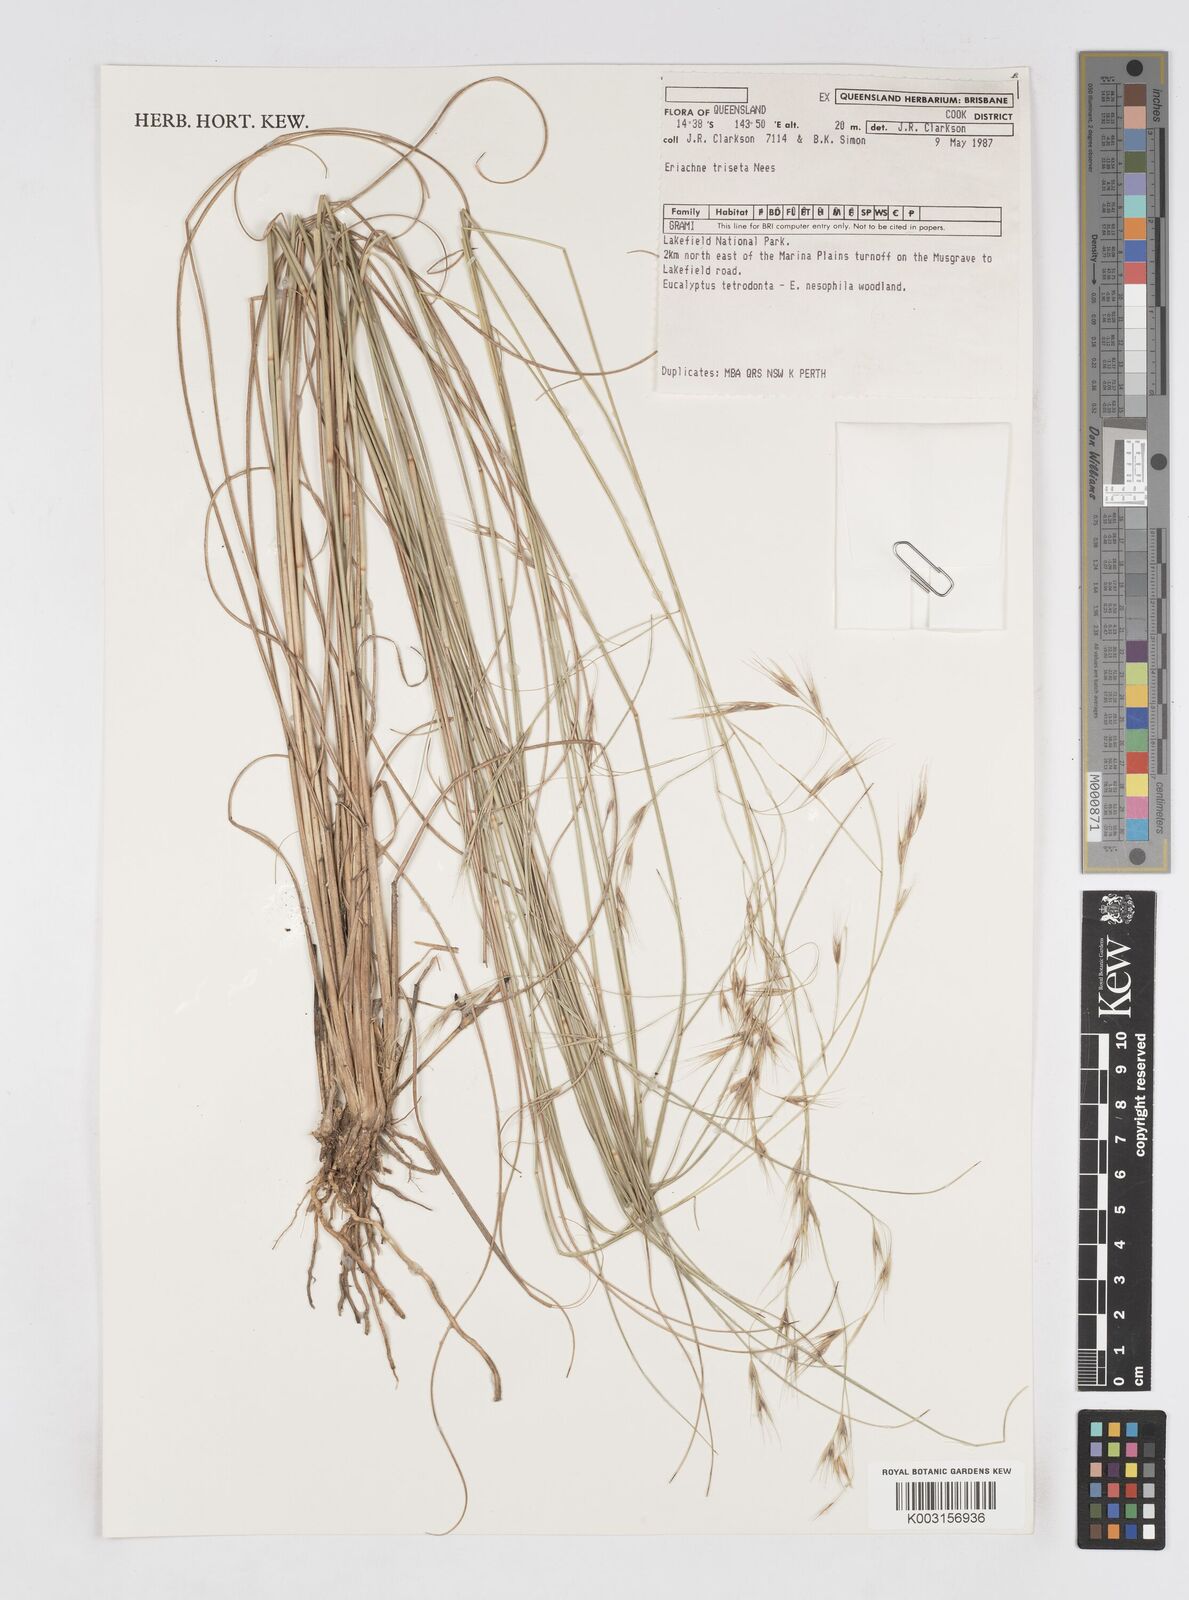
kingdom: Plantae
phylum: Tracheophyta
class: Liliopsida
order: Poales
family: Poaceae
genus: Eriachne
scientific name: Eriachne triseta
